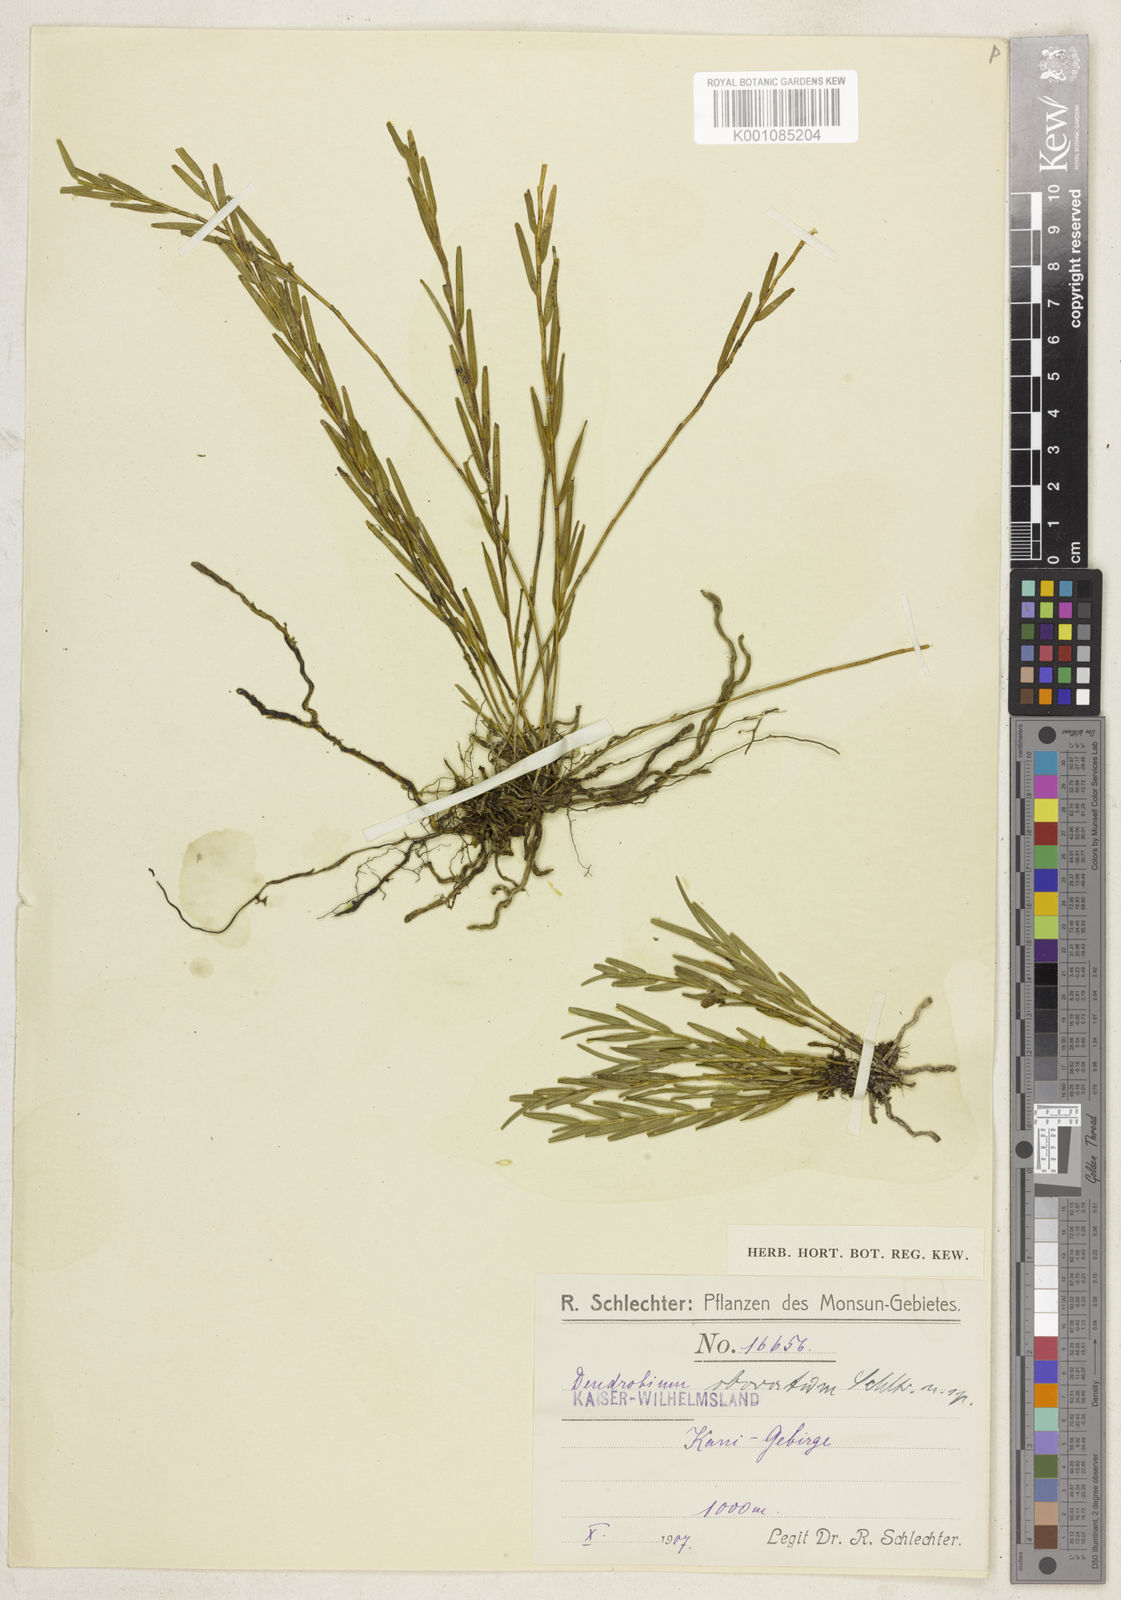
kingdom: Plantae
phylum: Tracheophyta
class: Liliopsida
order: Asparagales
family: Orchidaceae
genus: Dendrobium
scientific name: Dendrobium obovatum
